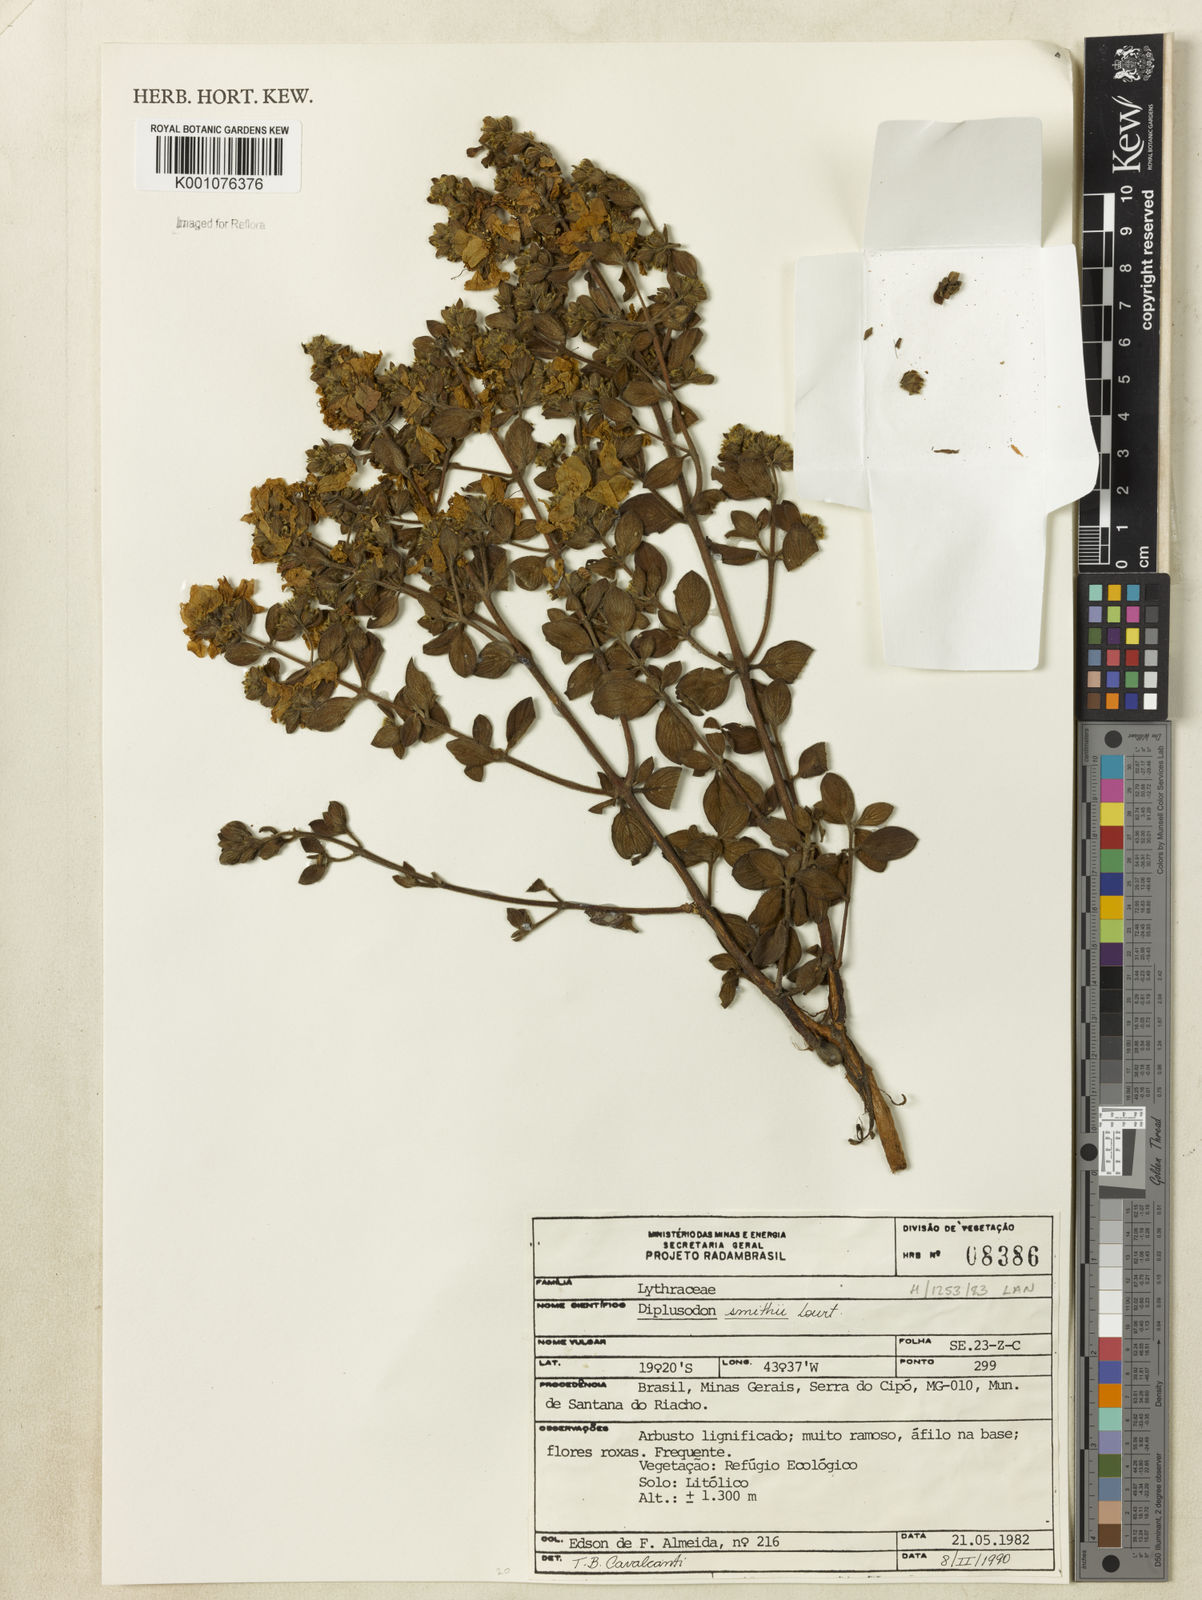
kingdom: Plantae
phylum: Tracheophyta
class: Magnoliopsida
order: Myrtales
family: Lythraceae
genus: Diplusodon
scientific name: Diplusodon hirsutus
